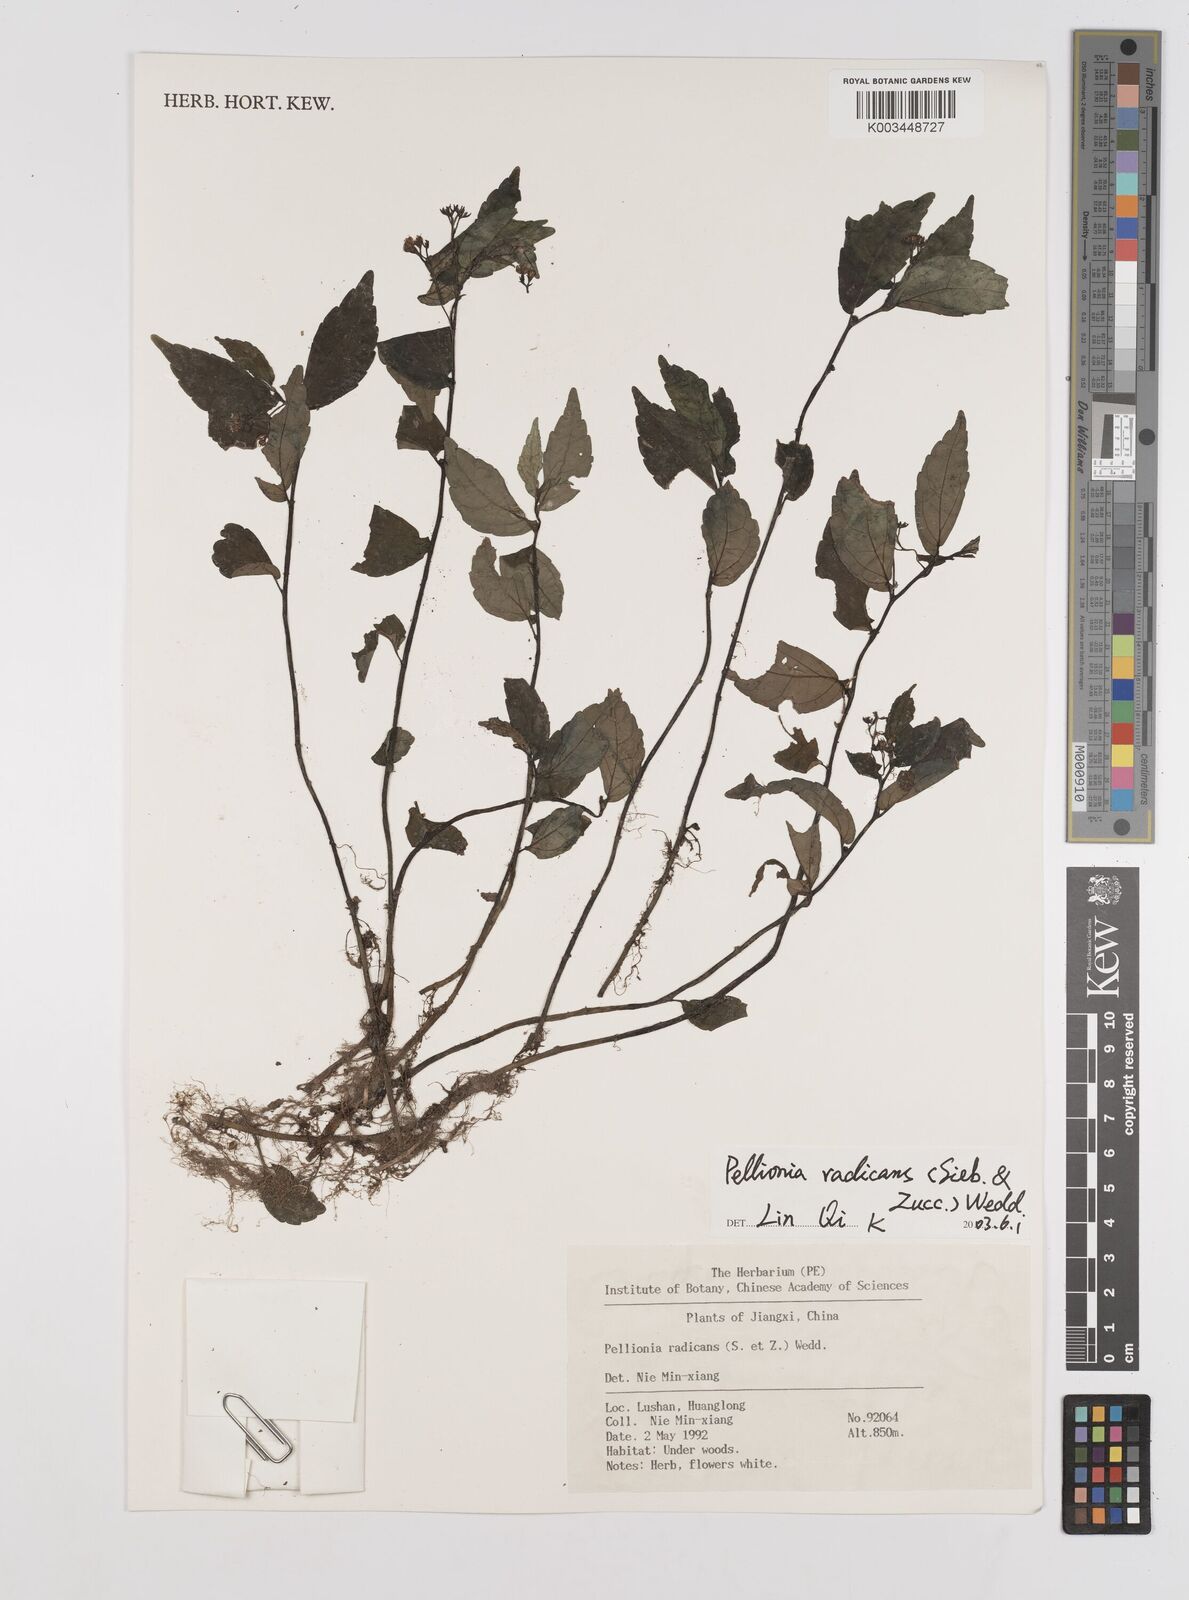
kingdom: Plantae
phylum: Tracheophyta
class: Magnoliopsida
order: Rosales
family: Urticaceae
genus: Elatostema
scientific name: Elatostema radicans
